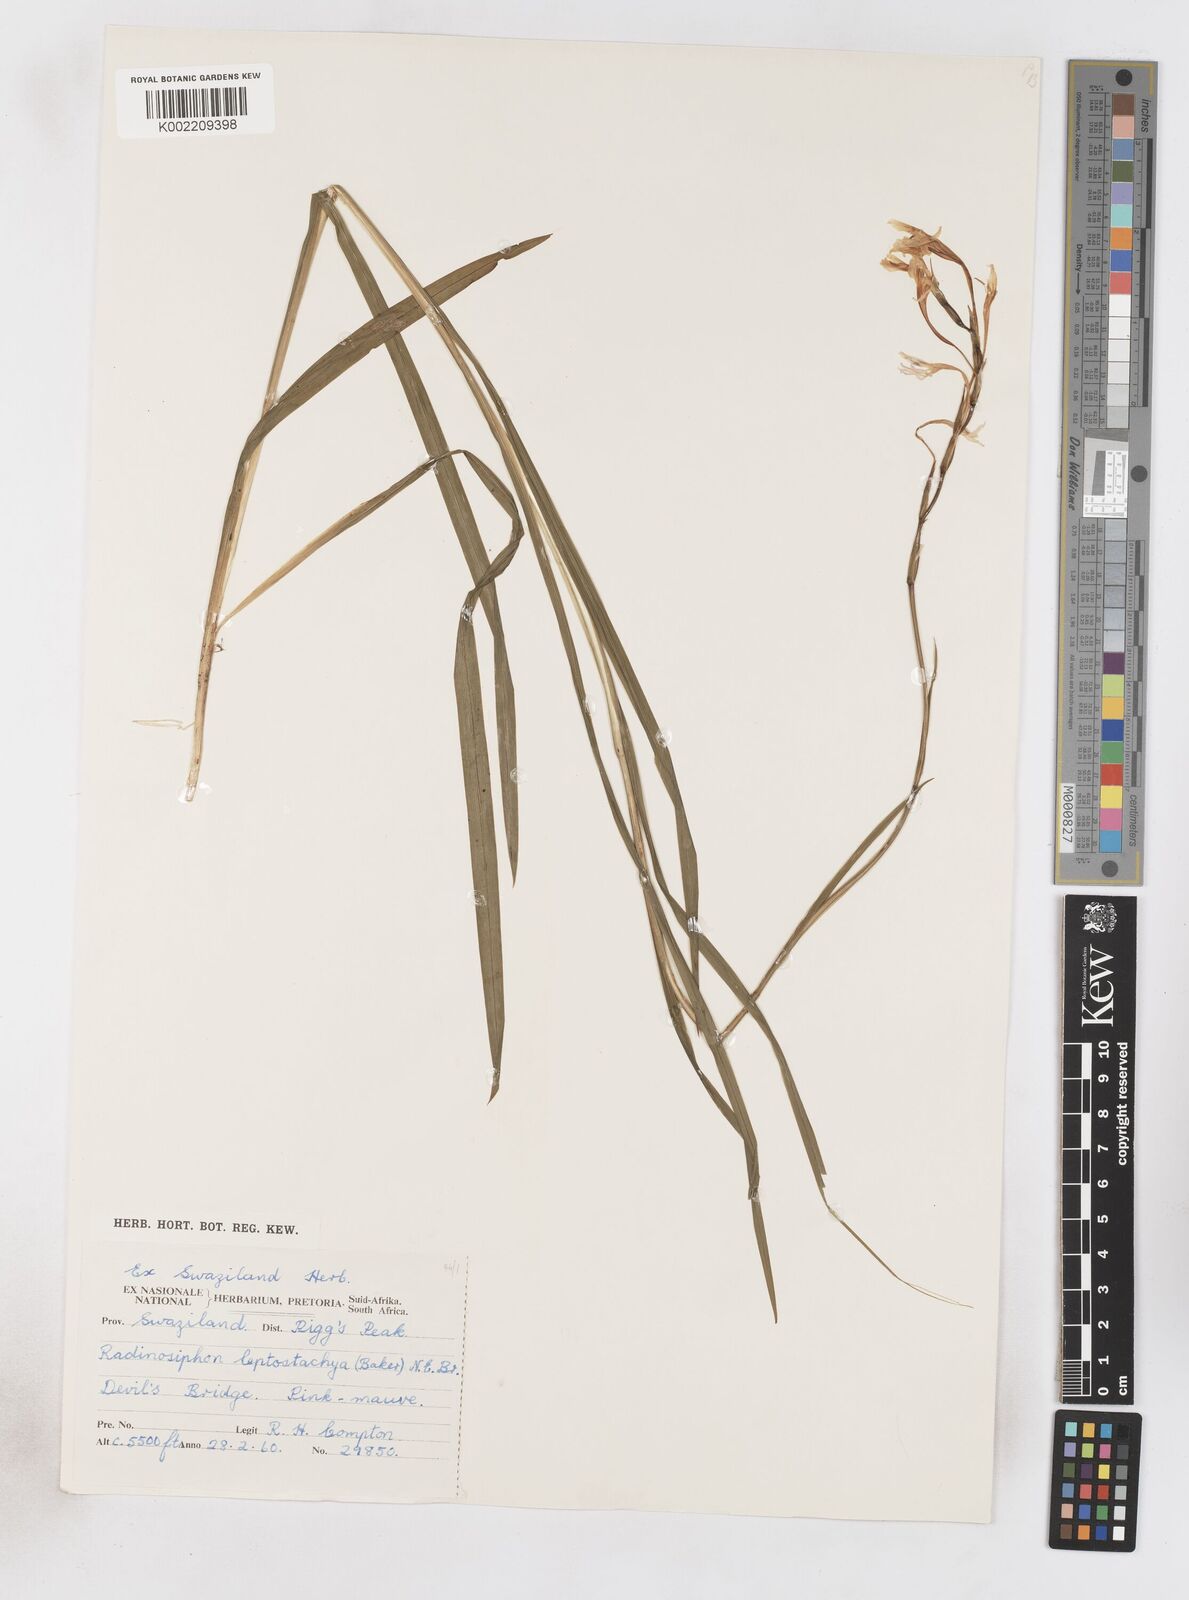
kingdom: Plantae
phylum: Tracheophyta
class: Liliopsida
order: Asparagales
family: Iridaceae
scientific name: Iridaceae
